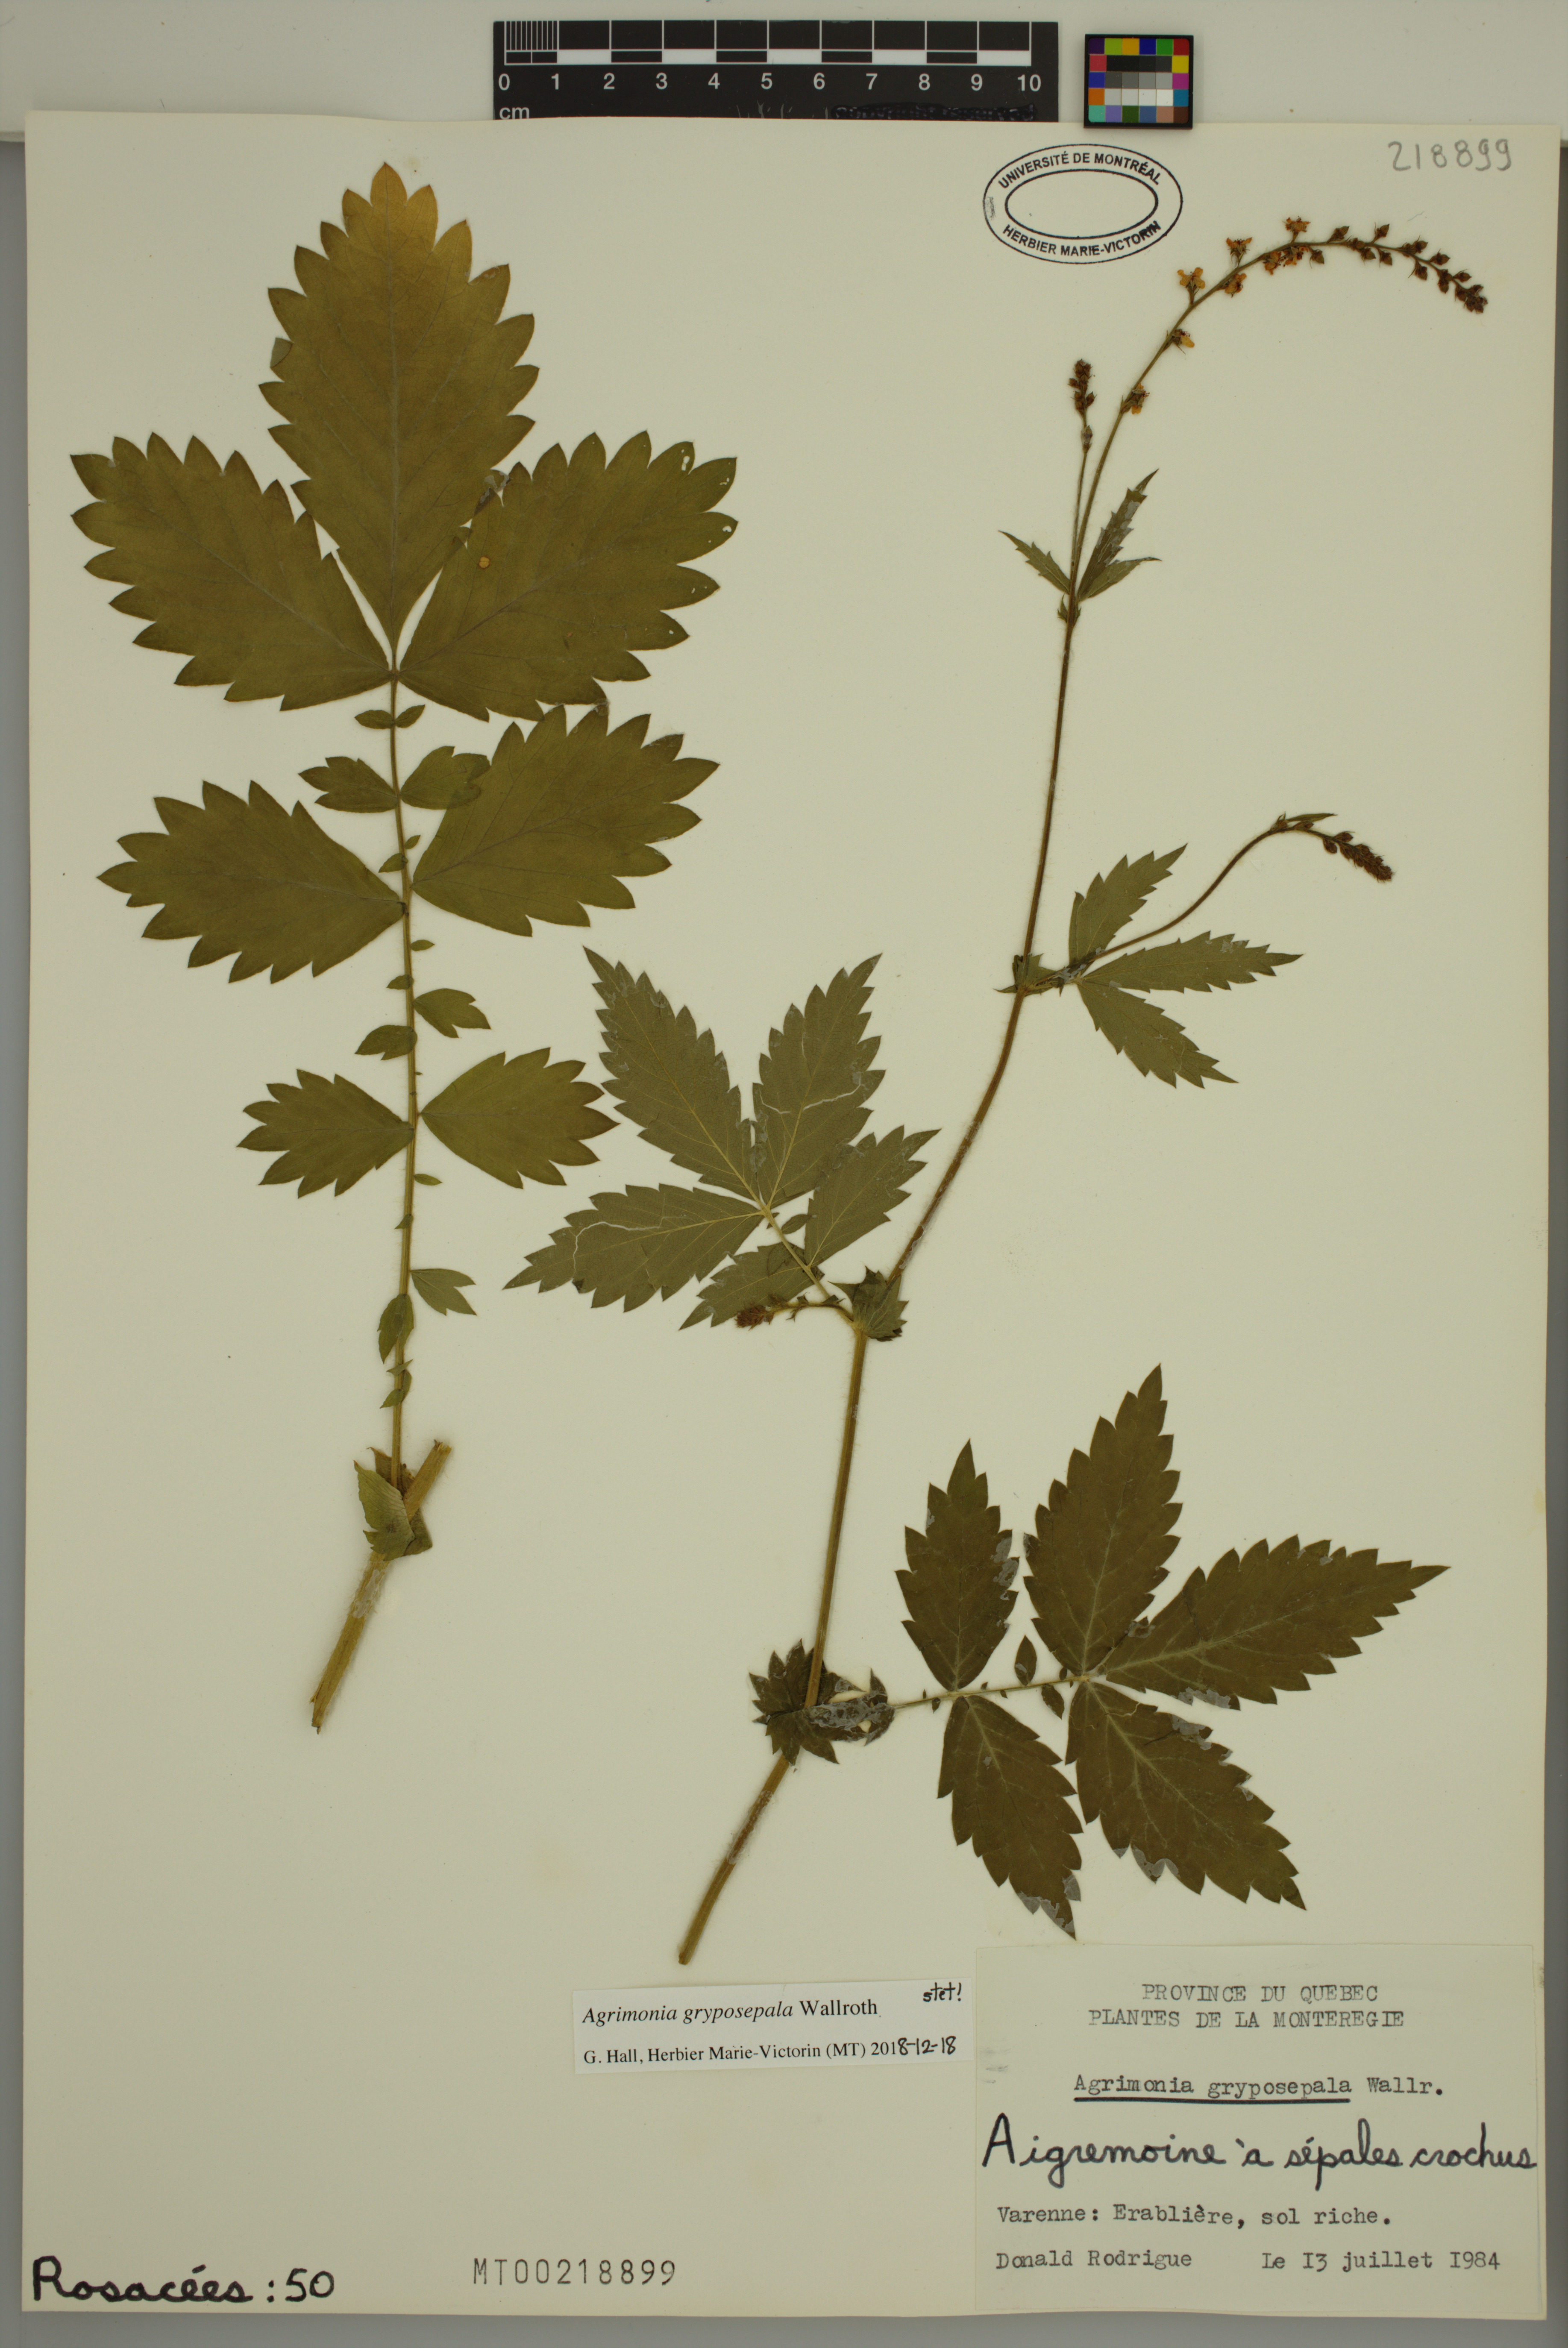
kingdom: Plantae
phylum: Tracheophyta
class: Magnoliopsida
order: Rosales
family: Rosaceae
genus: Agrimonia
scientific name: Agrimonia gryposepala
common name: Common agrimony
